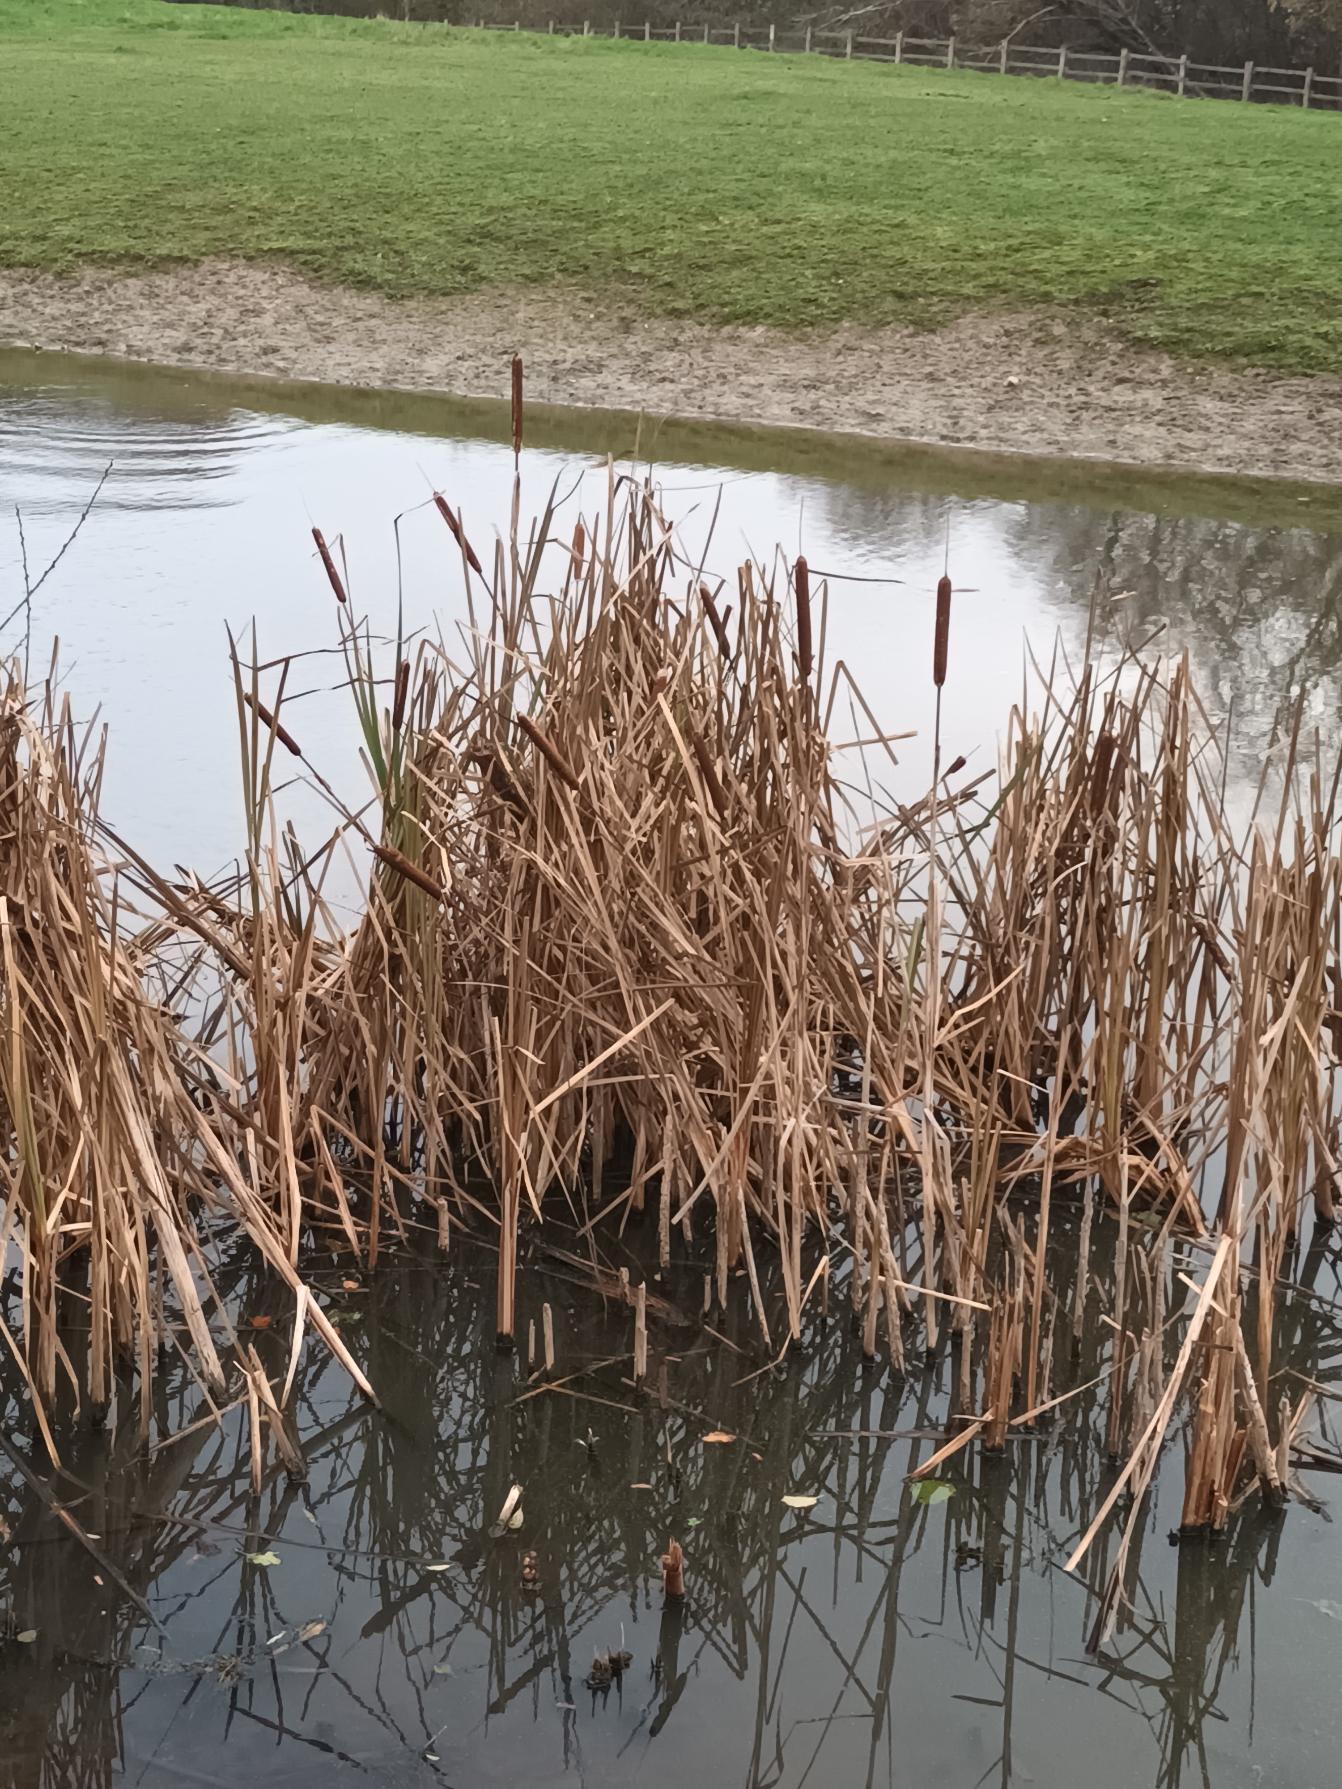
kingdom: Plantae
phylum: Tracheophyta
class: Liliopsida
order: Poales
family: Typhaceae
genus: Typha
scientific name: Typha latifolia
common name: Bredbladet dunhammer
